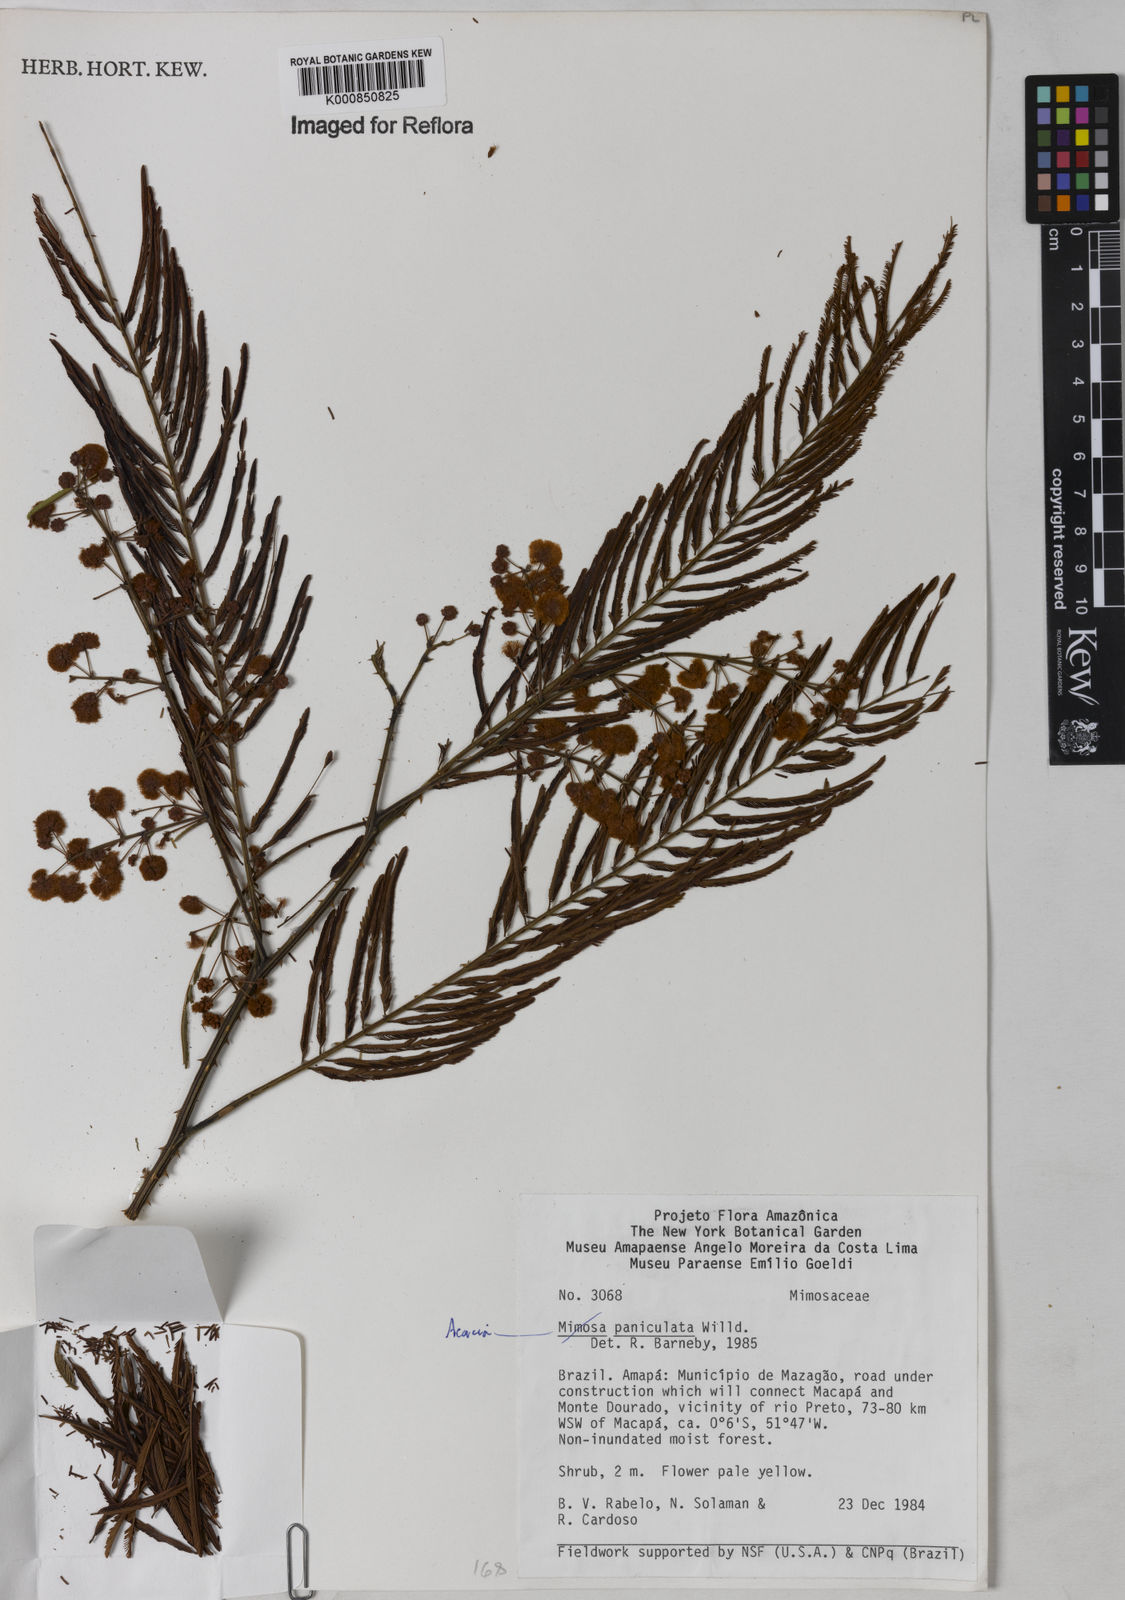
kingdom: Plantae
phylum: Tracheophyta
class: Magnoliopsida
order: Fabales
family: Fabaceae
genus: Senegalia
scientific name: Senegalia tenuifolia
